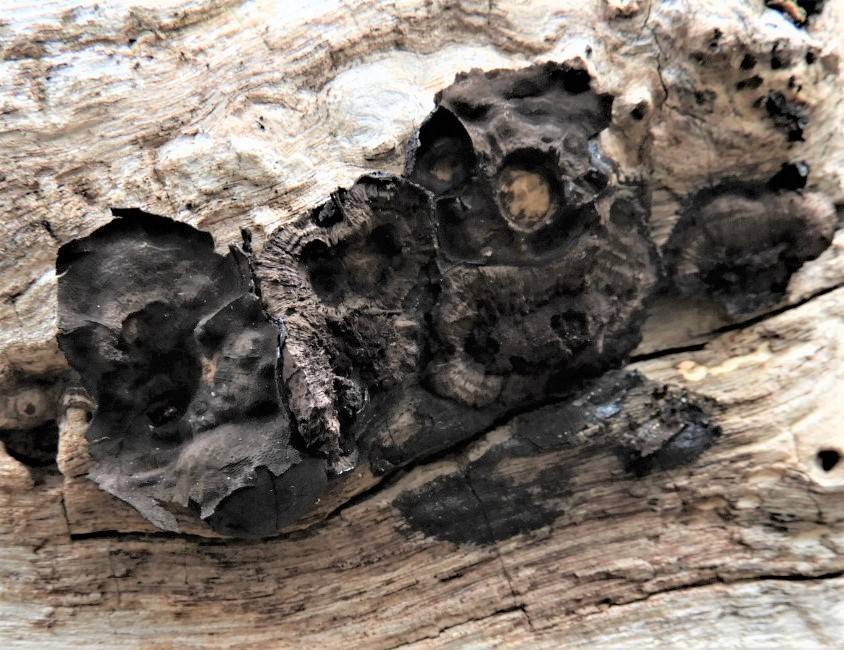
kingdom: Fungi
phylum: Ascomycota
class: Sordariomycetes
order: Xylariales
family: Hypoxylaceae
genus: Daldinia
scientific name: Daldinia
